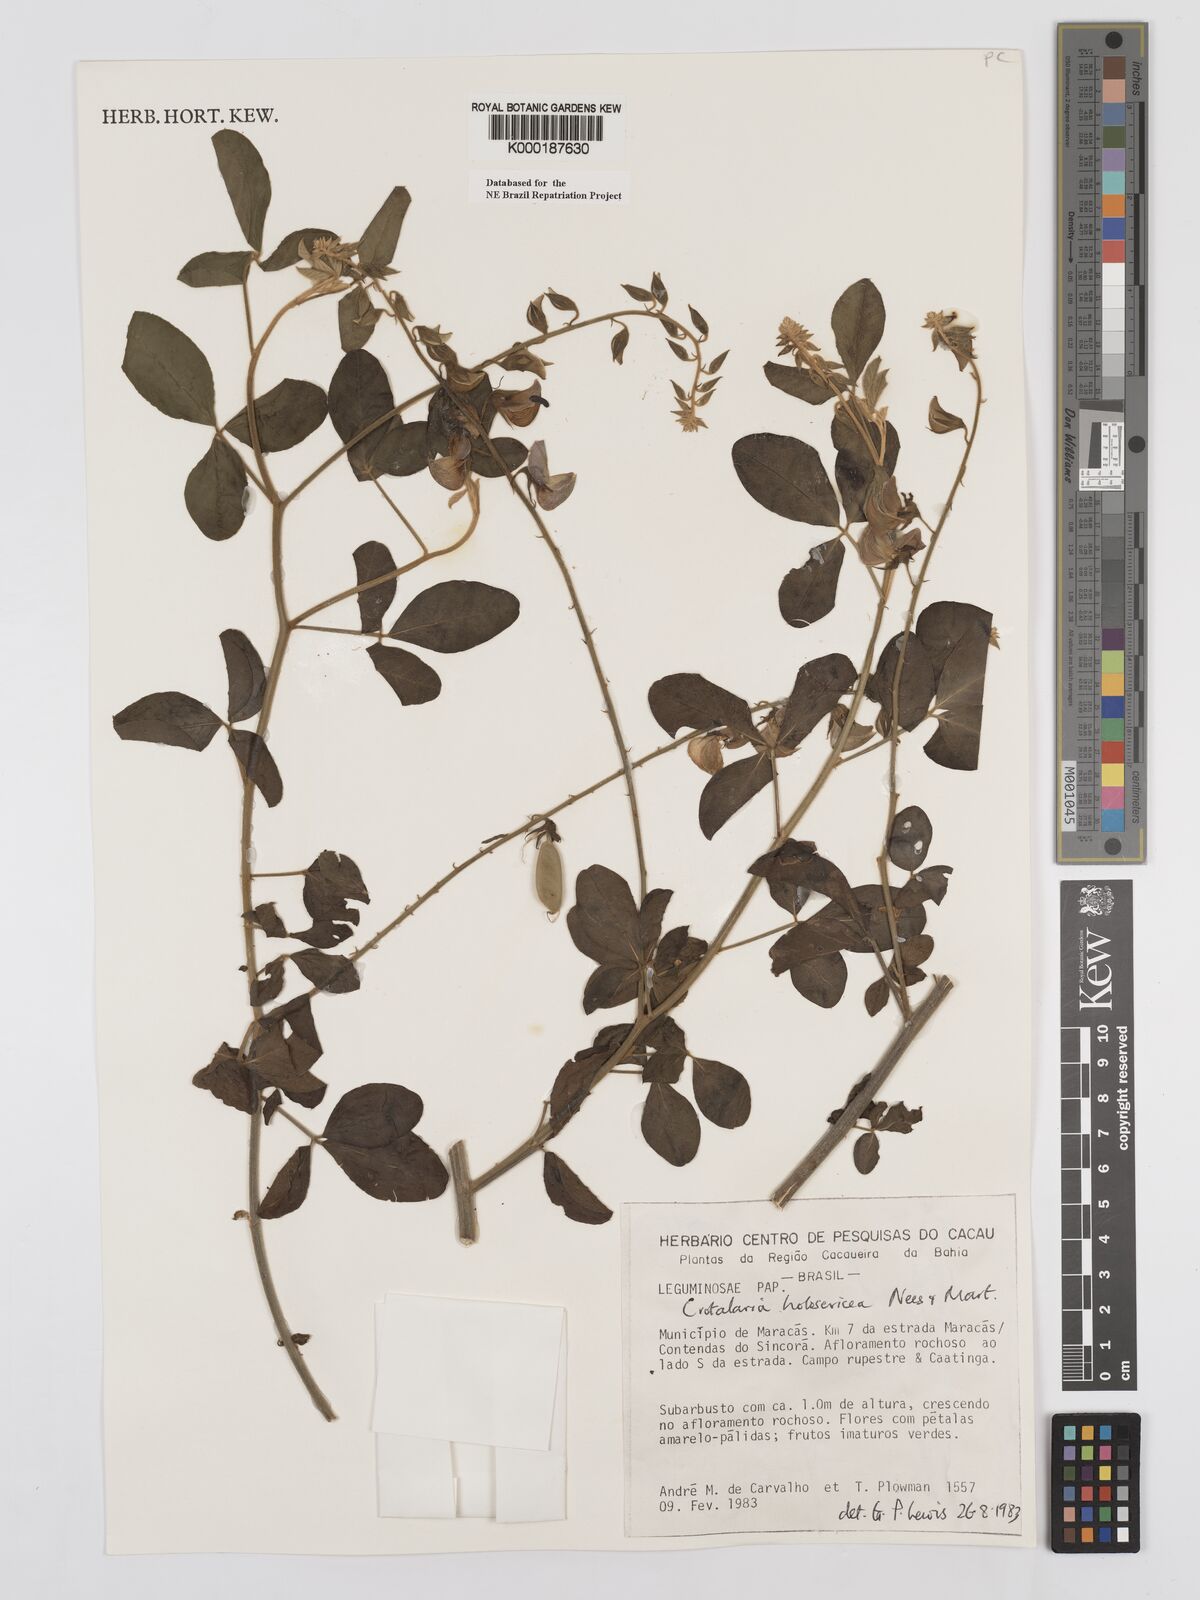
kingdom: Plantae
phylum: Tracheophyta
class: Magnoliopsida
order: Fabales
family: Fabaceae
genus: Crotalaria
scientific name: Crotalaria holosericea
